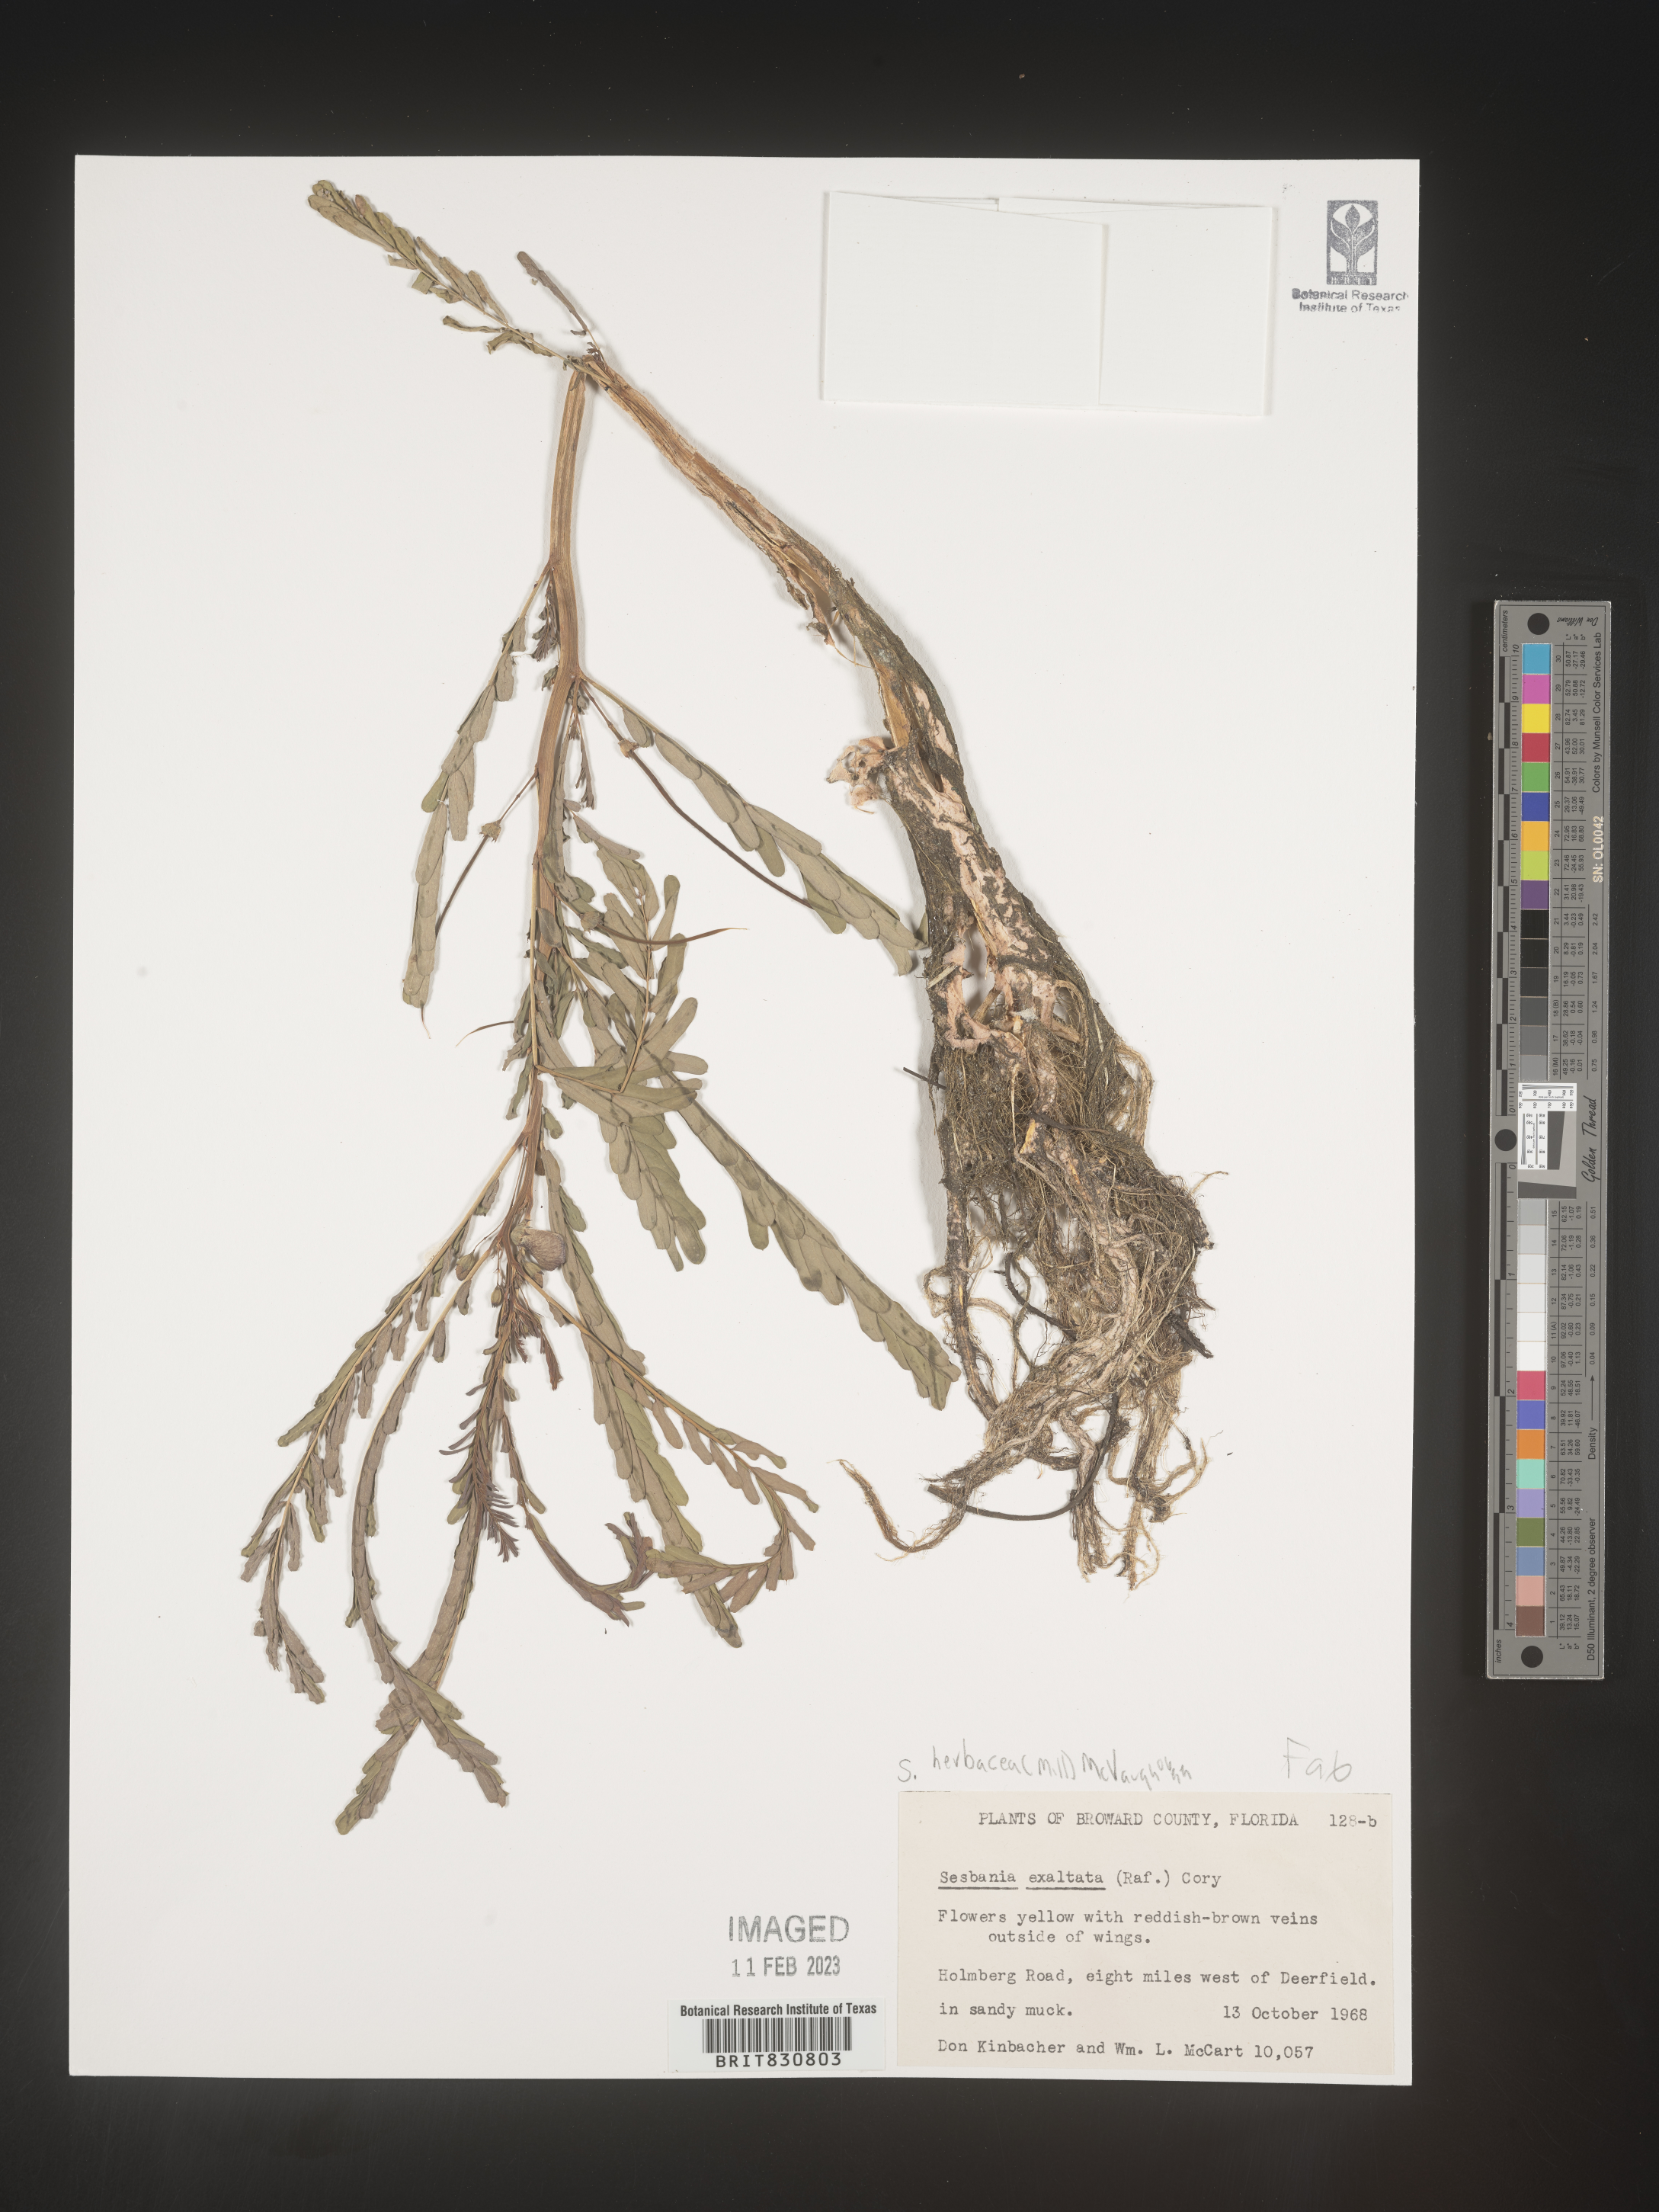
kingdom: Plantae
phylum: Tracheophyta
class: Magnoliopsida
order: Fabales
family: Fabaceae
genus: Sesbania
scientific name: Sesbania herbacea
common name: Bigpod sesbania
